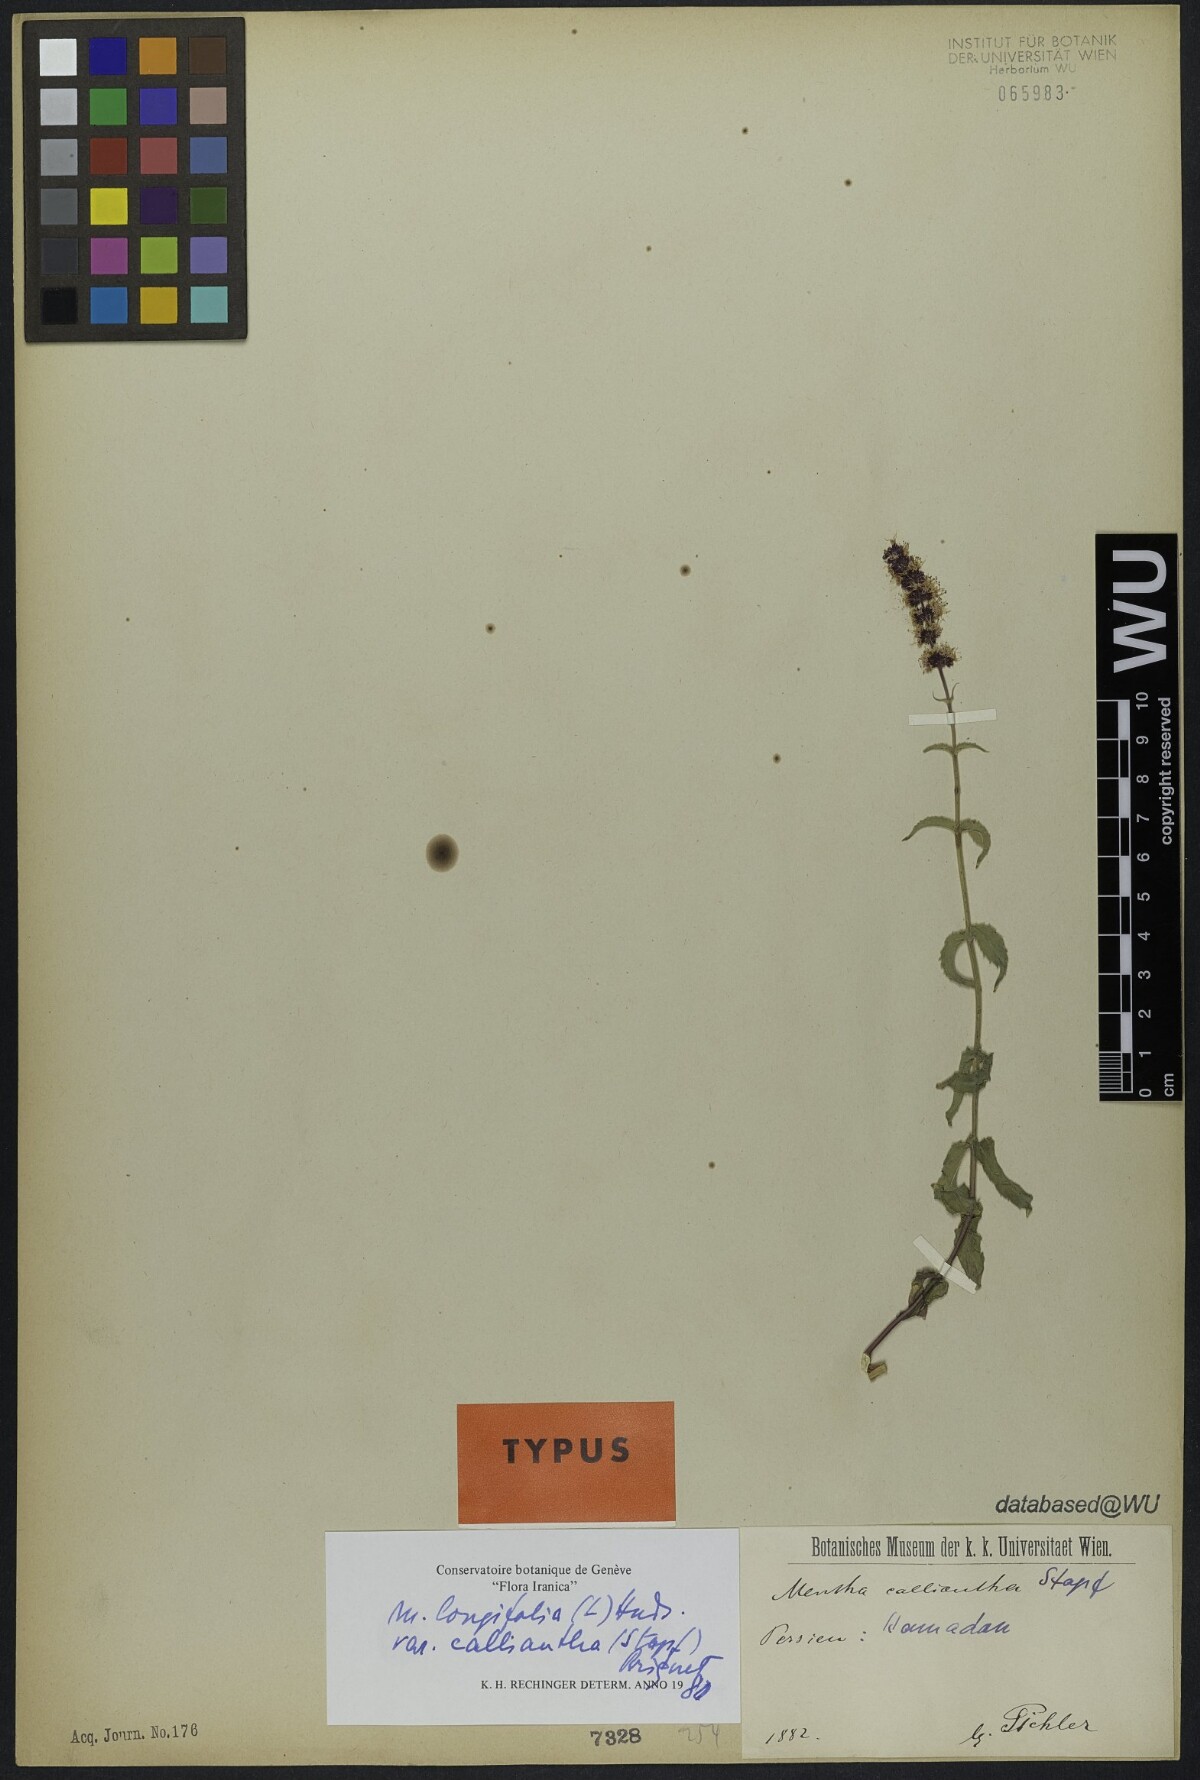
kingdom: Plantae
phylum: Tracheophyta
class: Magnoliopsida
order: Lamiales
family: Lamiaceae
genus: Mentha
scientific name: Mentha longifolia
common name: Horse mint
